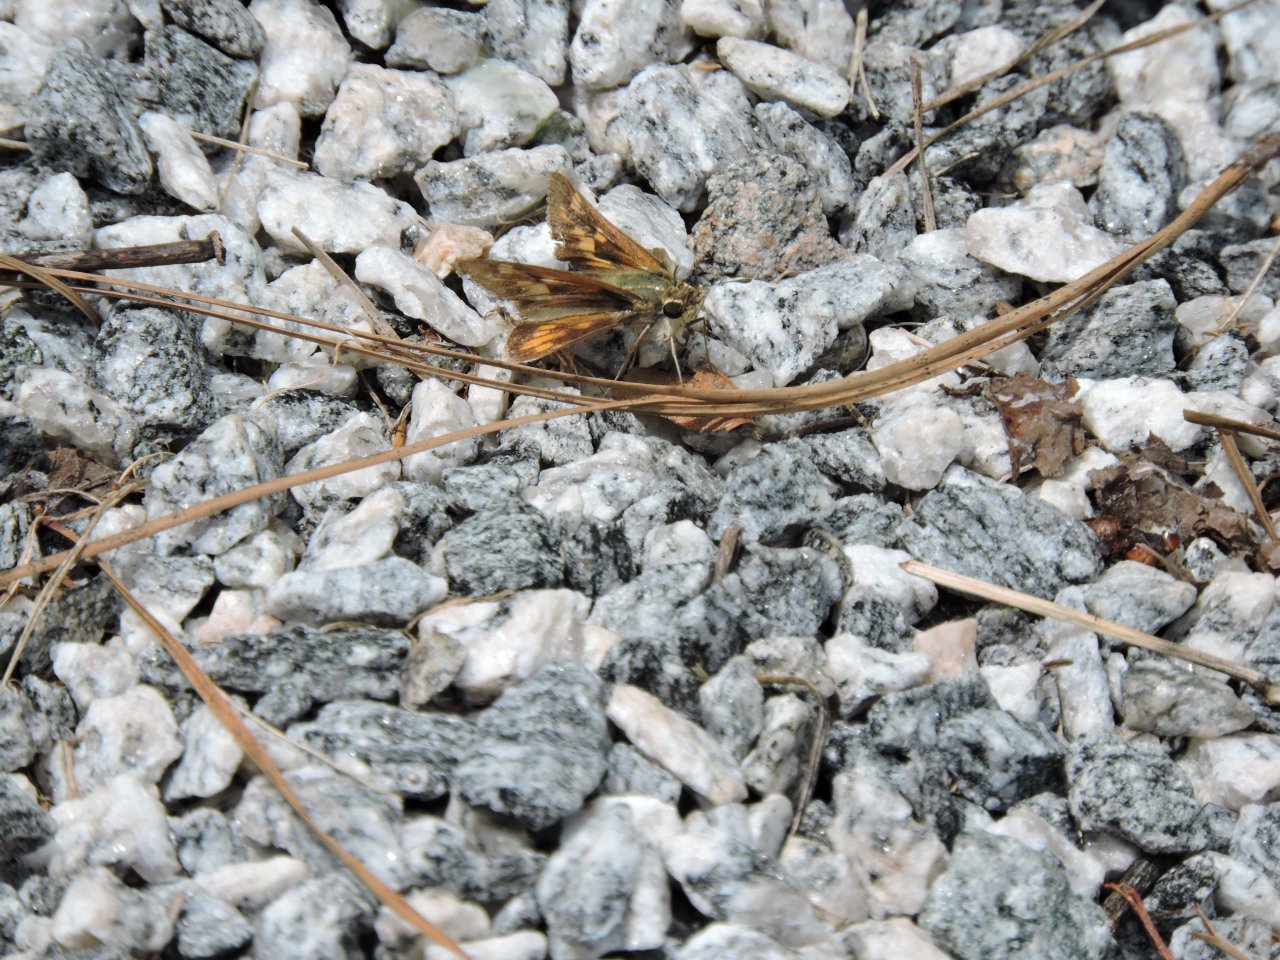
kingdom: Animalia
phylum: Arthropoda
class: Insecta
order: Lepidoptera
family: Hesperiidae
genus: Hylephila
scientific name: Hylephila phyleus
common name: Fiery Skipper
